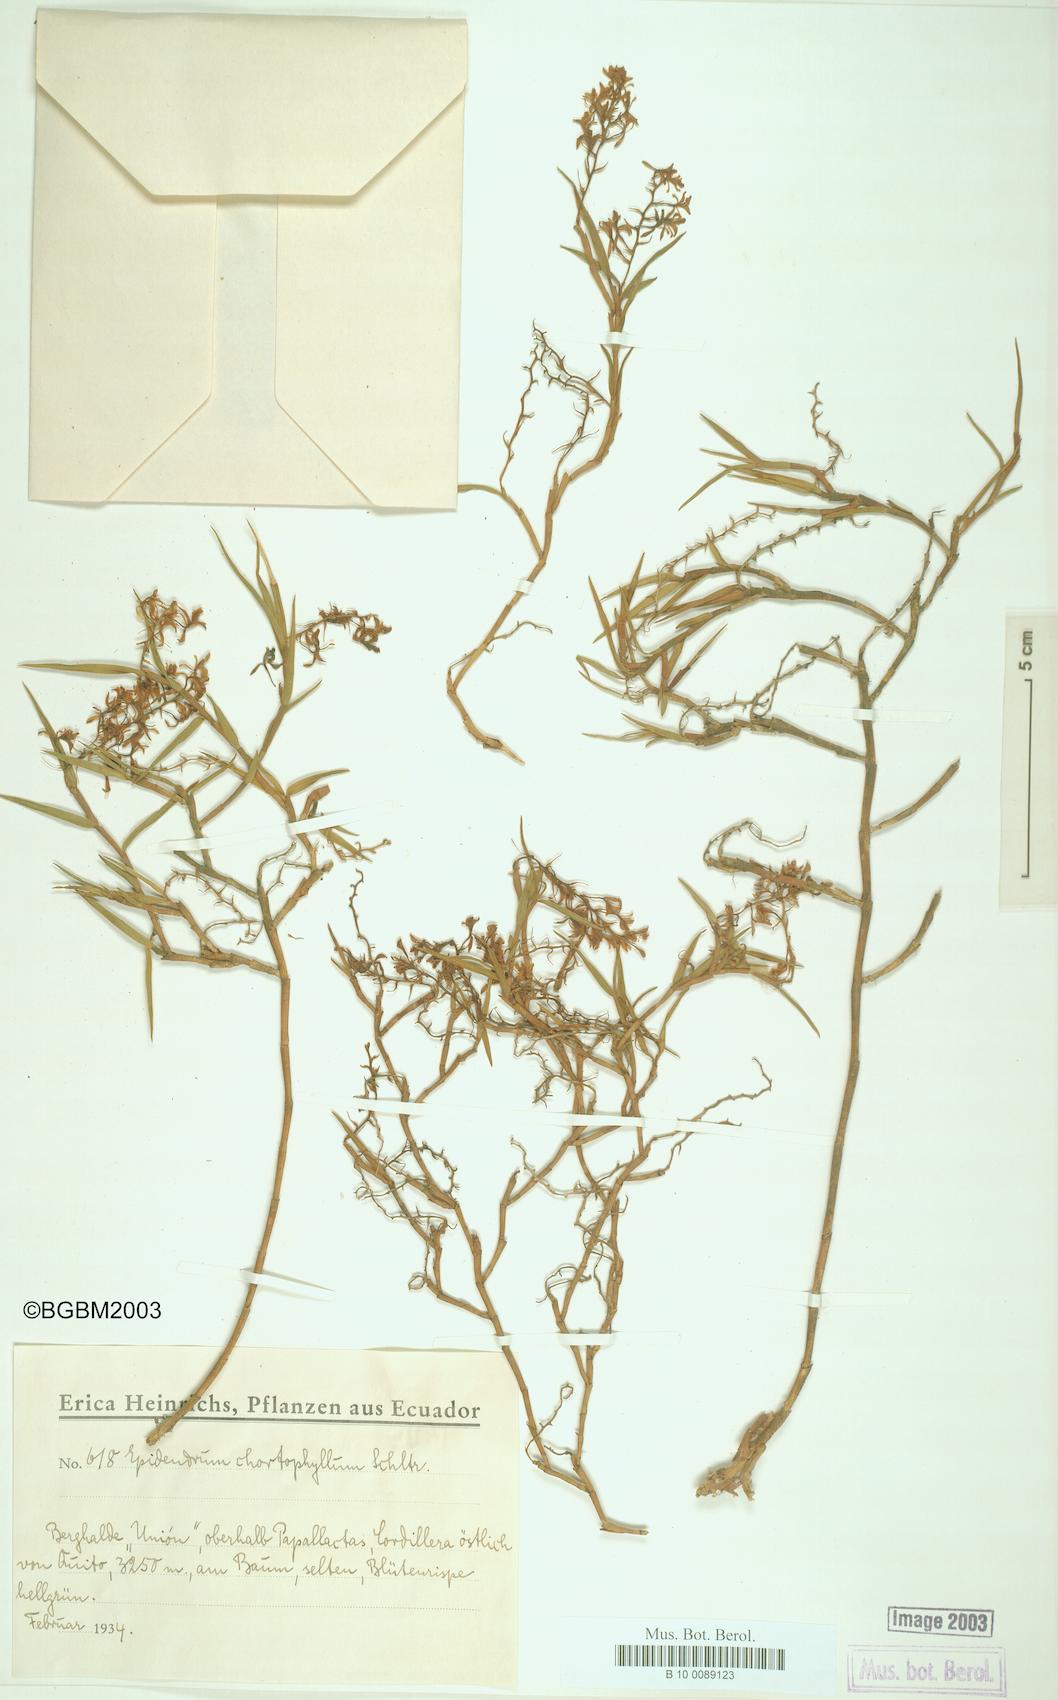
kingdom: Plantae
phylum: Tracheophyta
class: Liliopsida
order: Asparagales
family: Orchidaceae
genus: Epidendrum
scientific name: Epidendrum angustissimum
